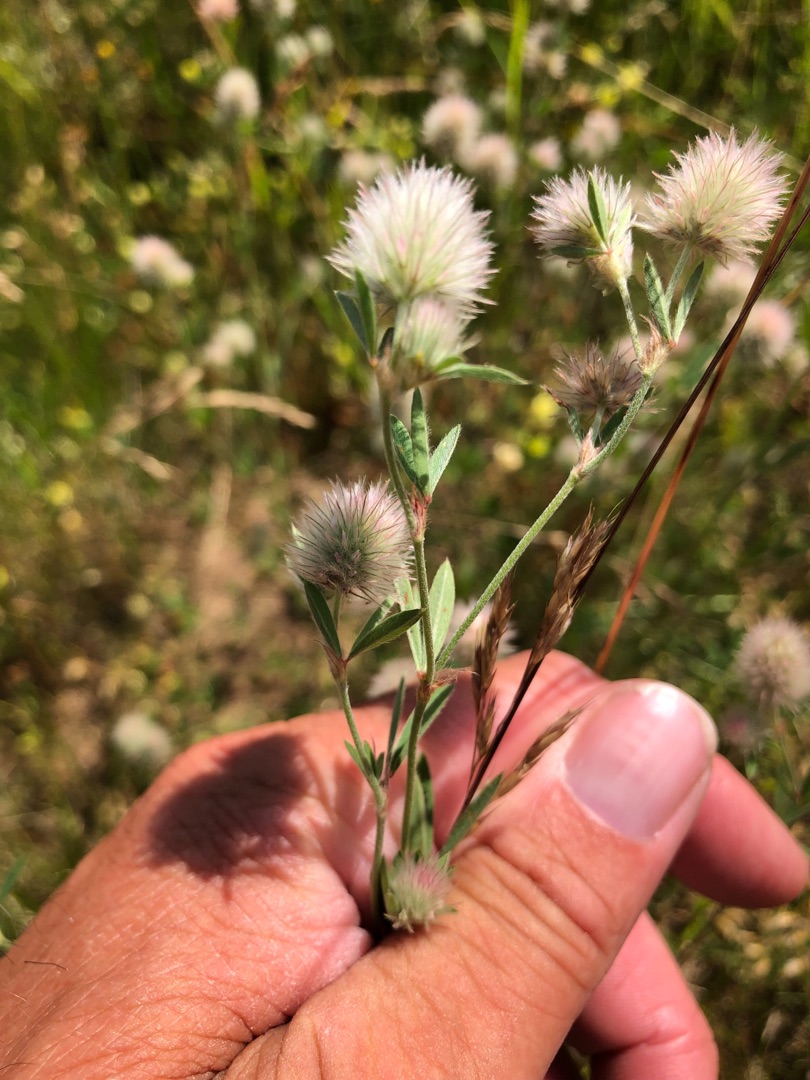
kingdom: Plantae
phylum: Tracheophyta
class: Magnoliopsida
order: Fabales
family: Fabaceae
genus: Trifolium
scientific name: Trifolium arvense
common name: Hare-kløver
